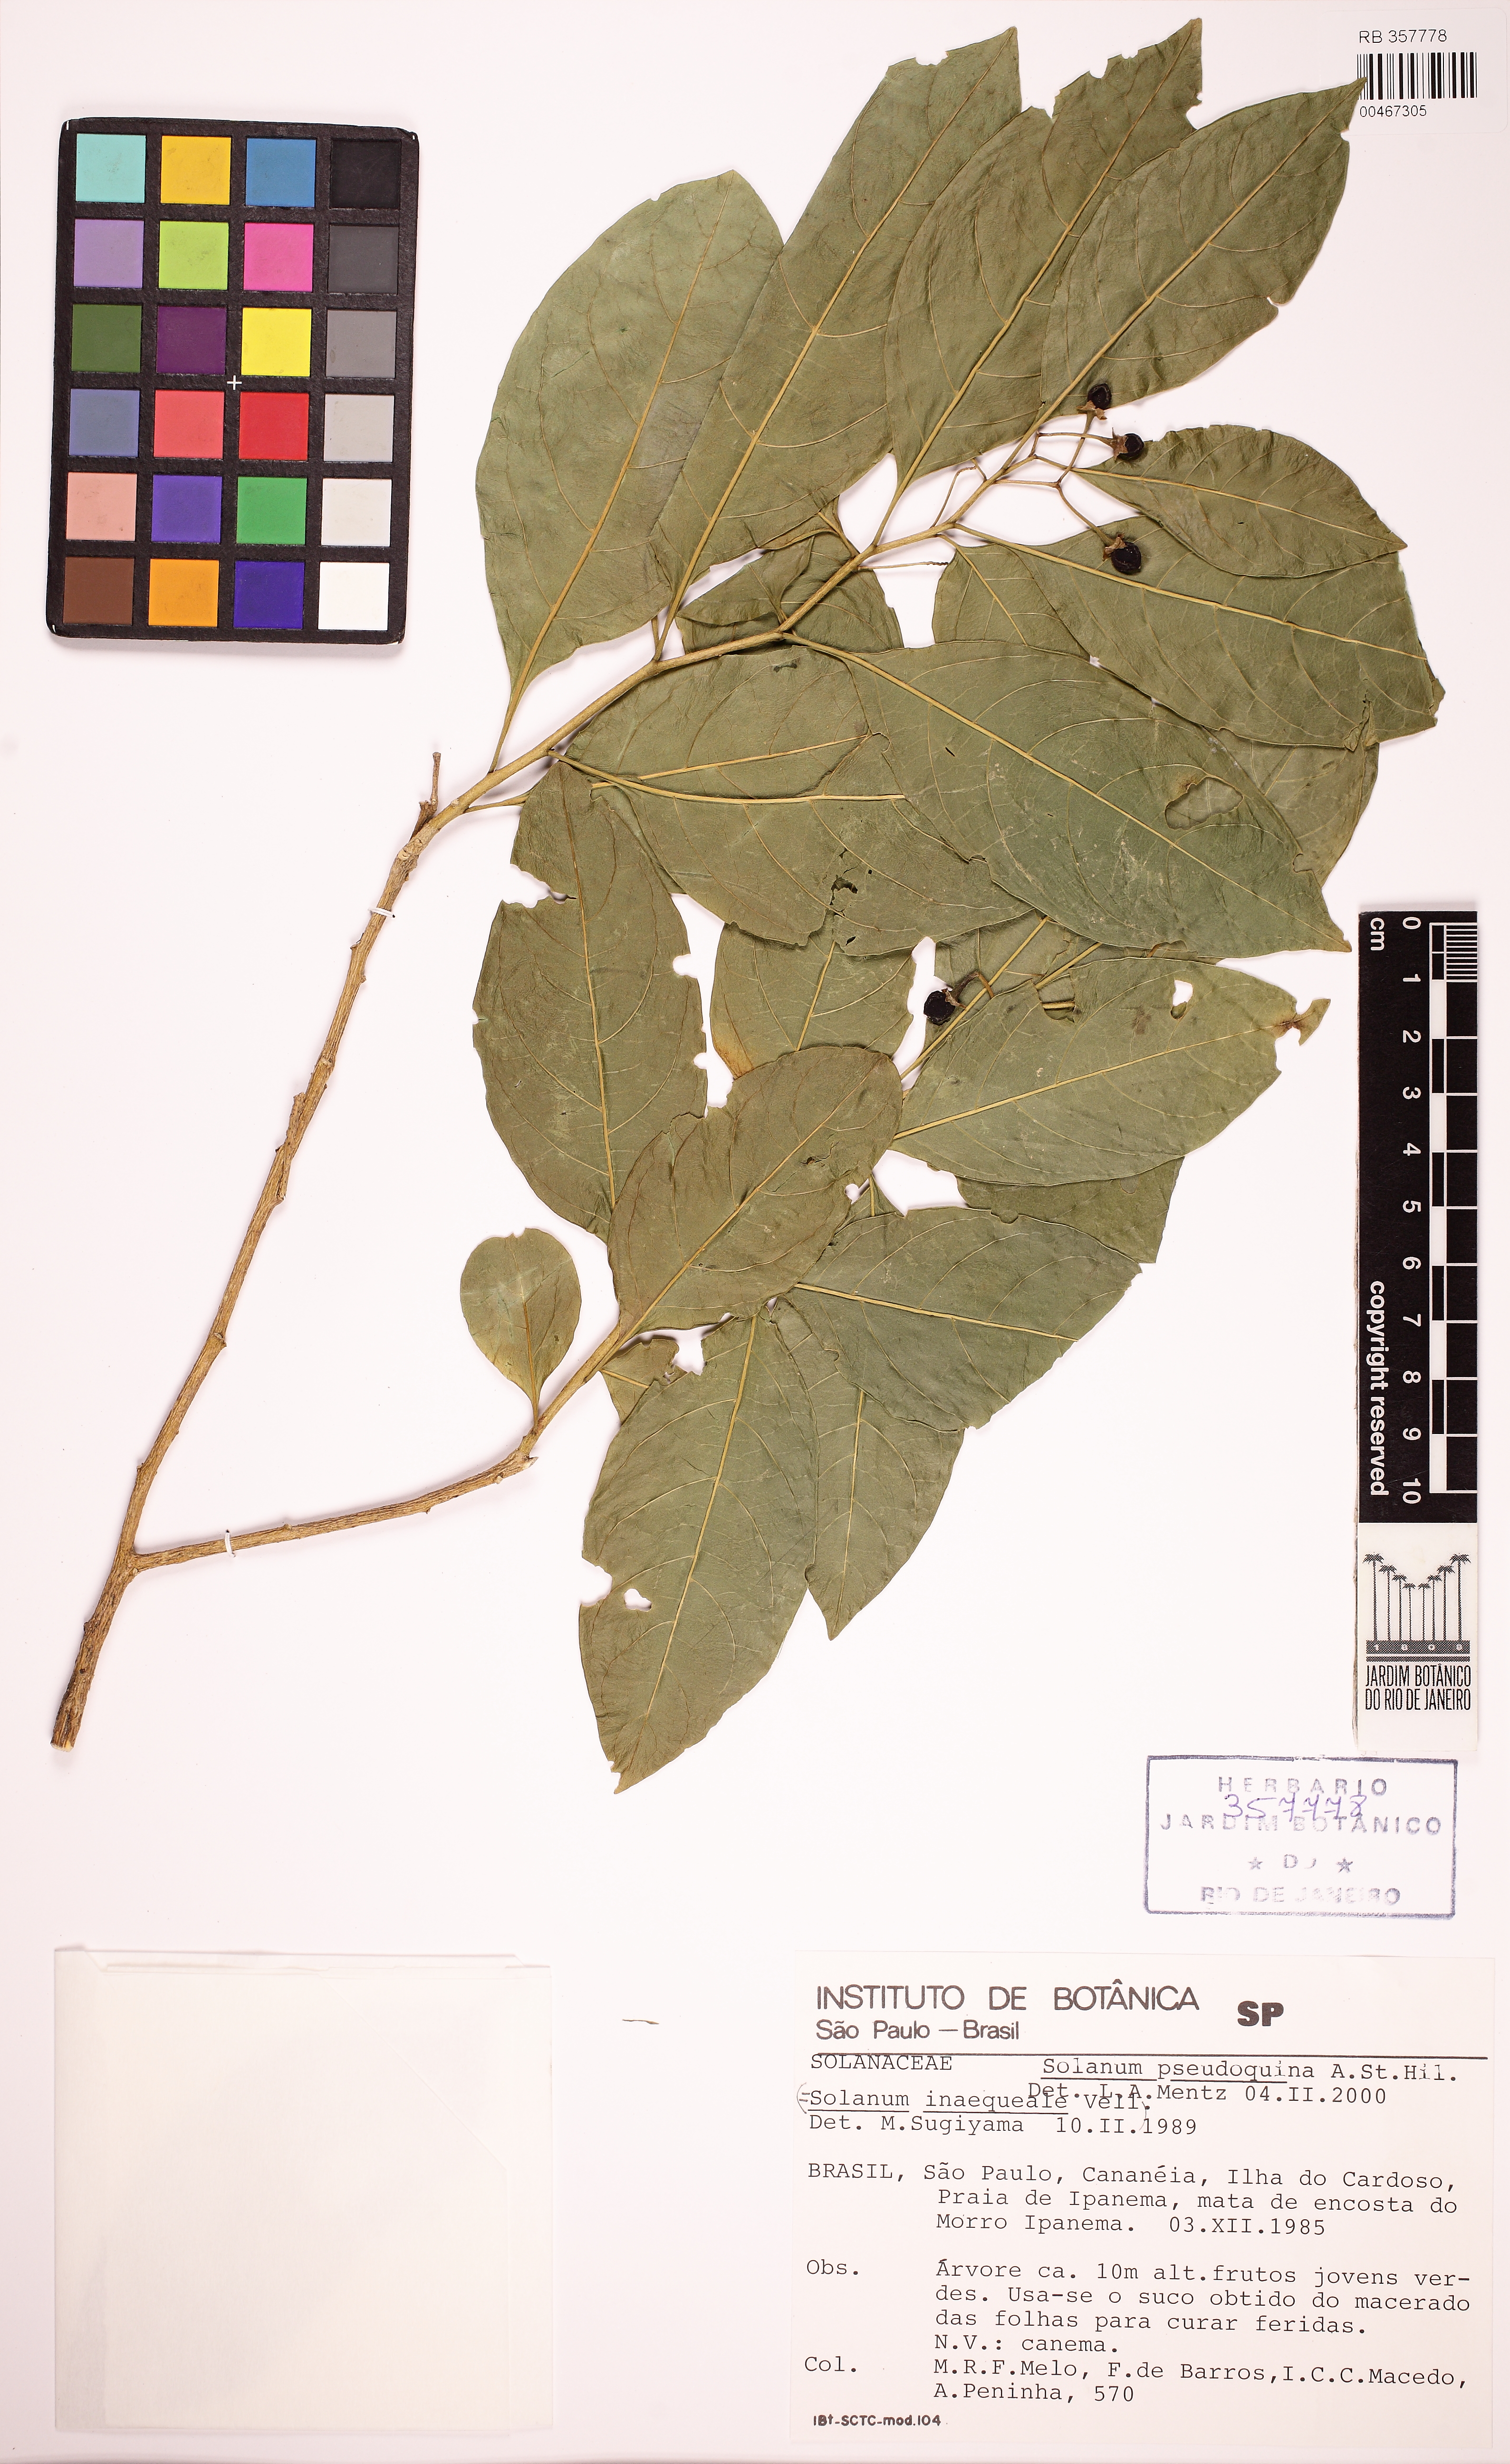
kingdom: Plantae
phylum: Tracheophyta
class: Magnoliopsida
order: Solanales
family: Solanaceae
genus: Solanum
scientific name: Solanum pseudoquina
